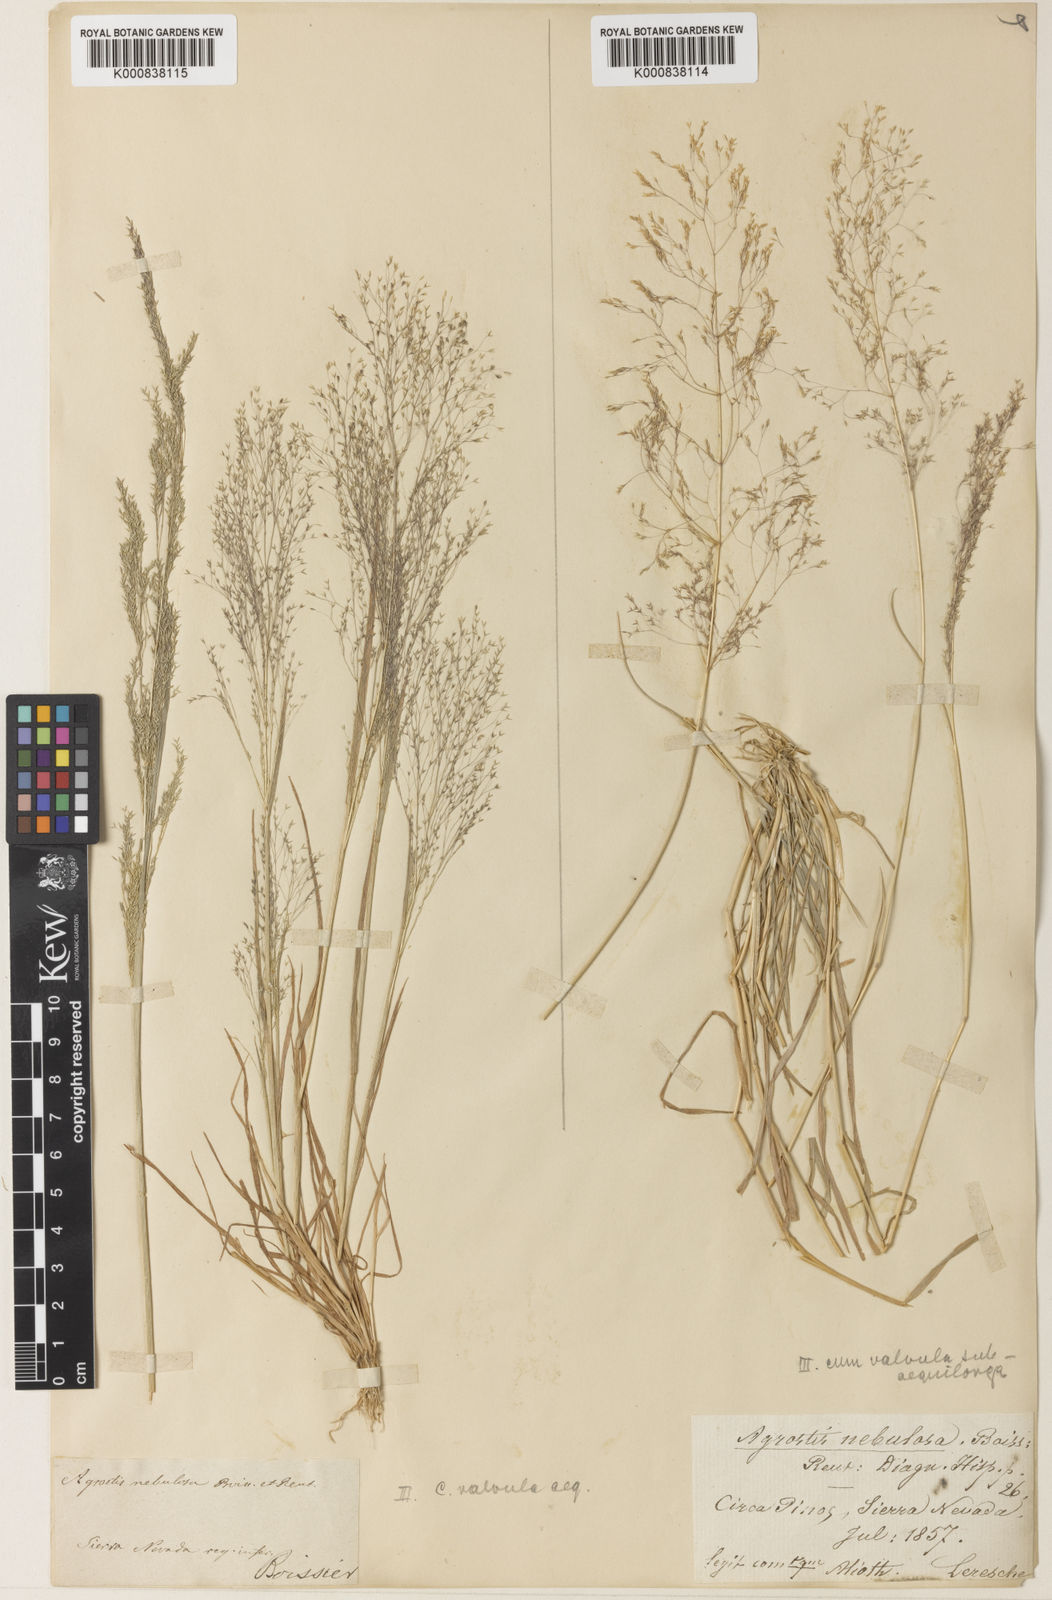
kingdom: Plantae
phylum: Tracheophyta
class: Liliopsida
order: Poales
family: Poaceae
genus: Agrostis
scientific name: Agrostis nebulosa
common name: Cloud grass
